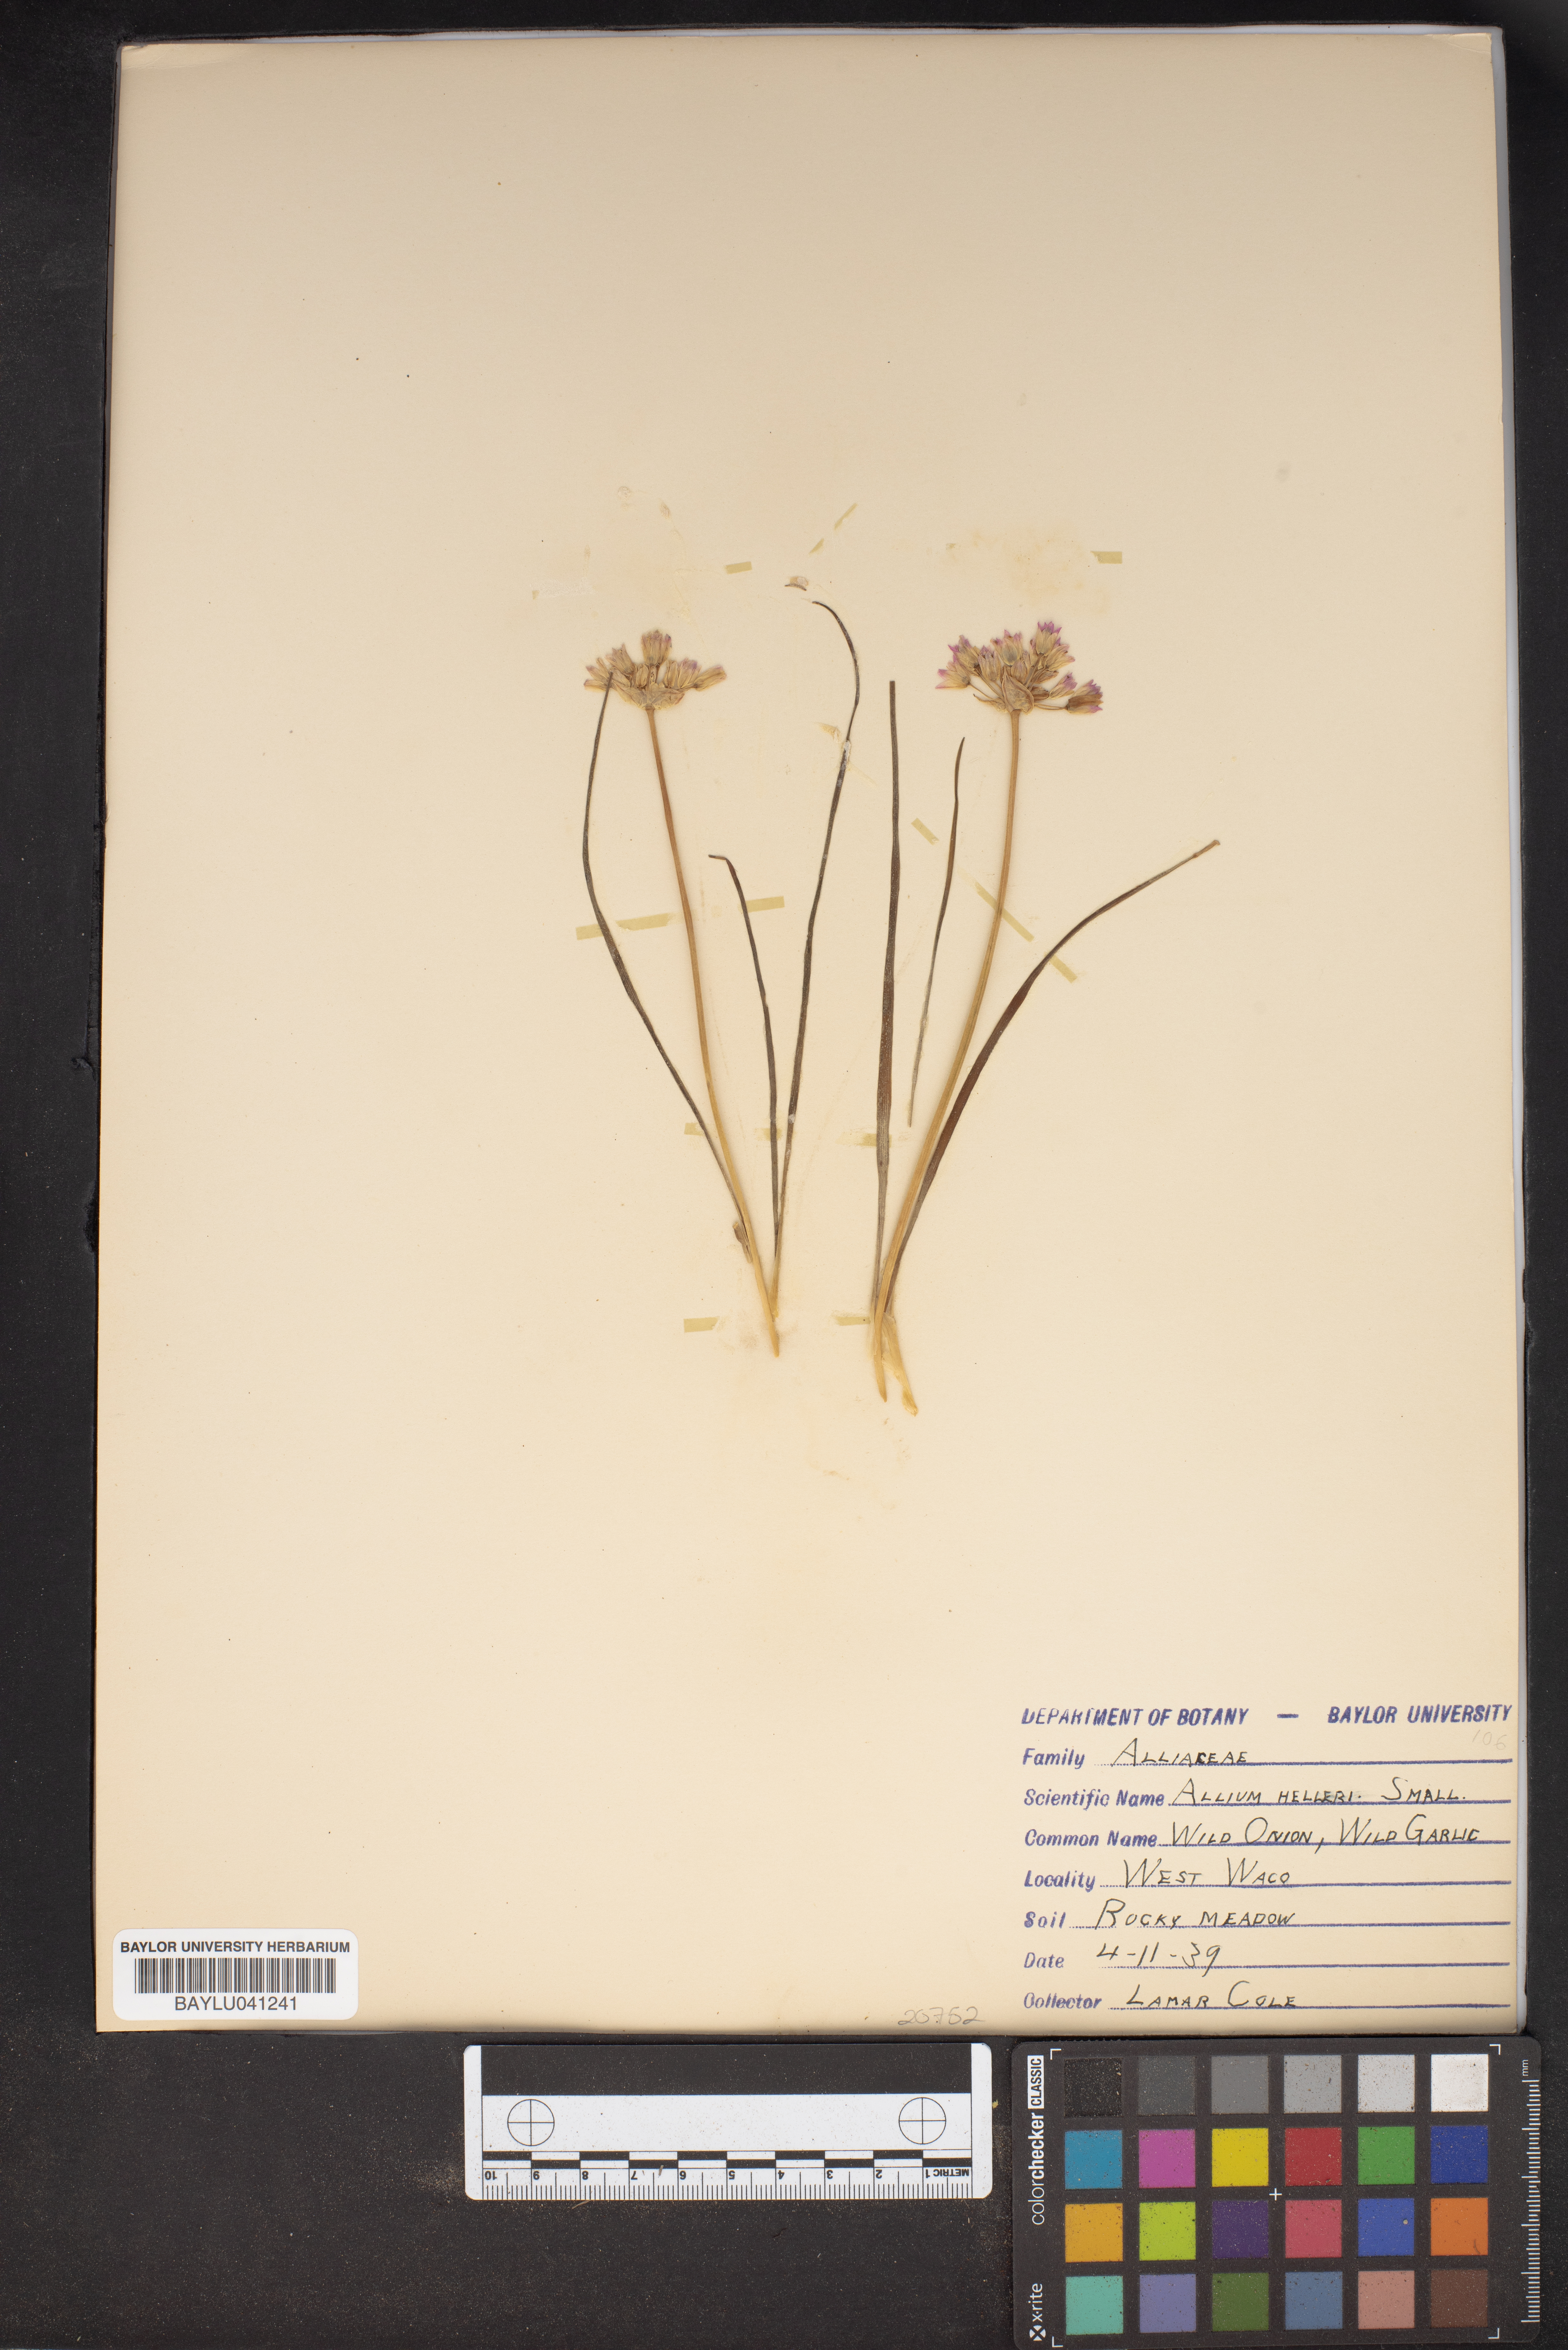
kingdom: Plantae
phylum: Tracheophyta
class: Liliopsida
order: Asparagales
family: Amaryllidaceae
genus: Allium
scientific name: Allium drummondii
